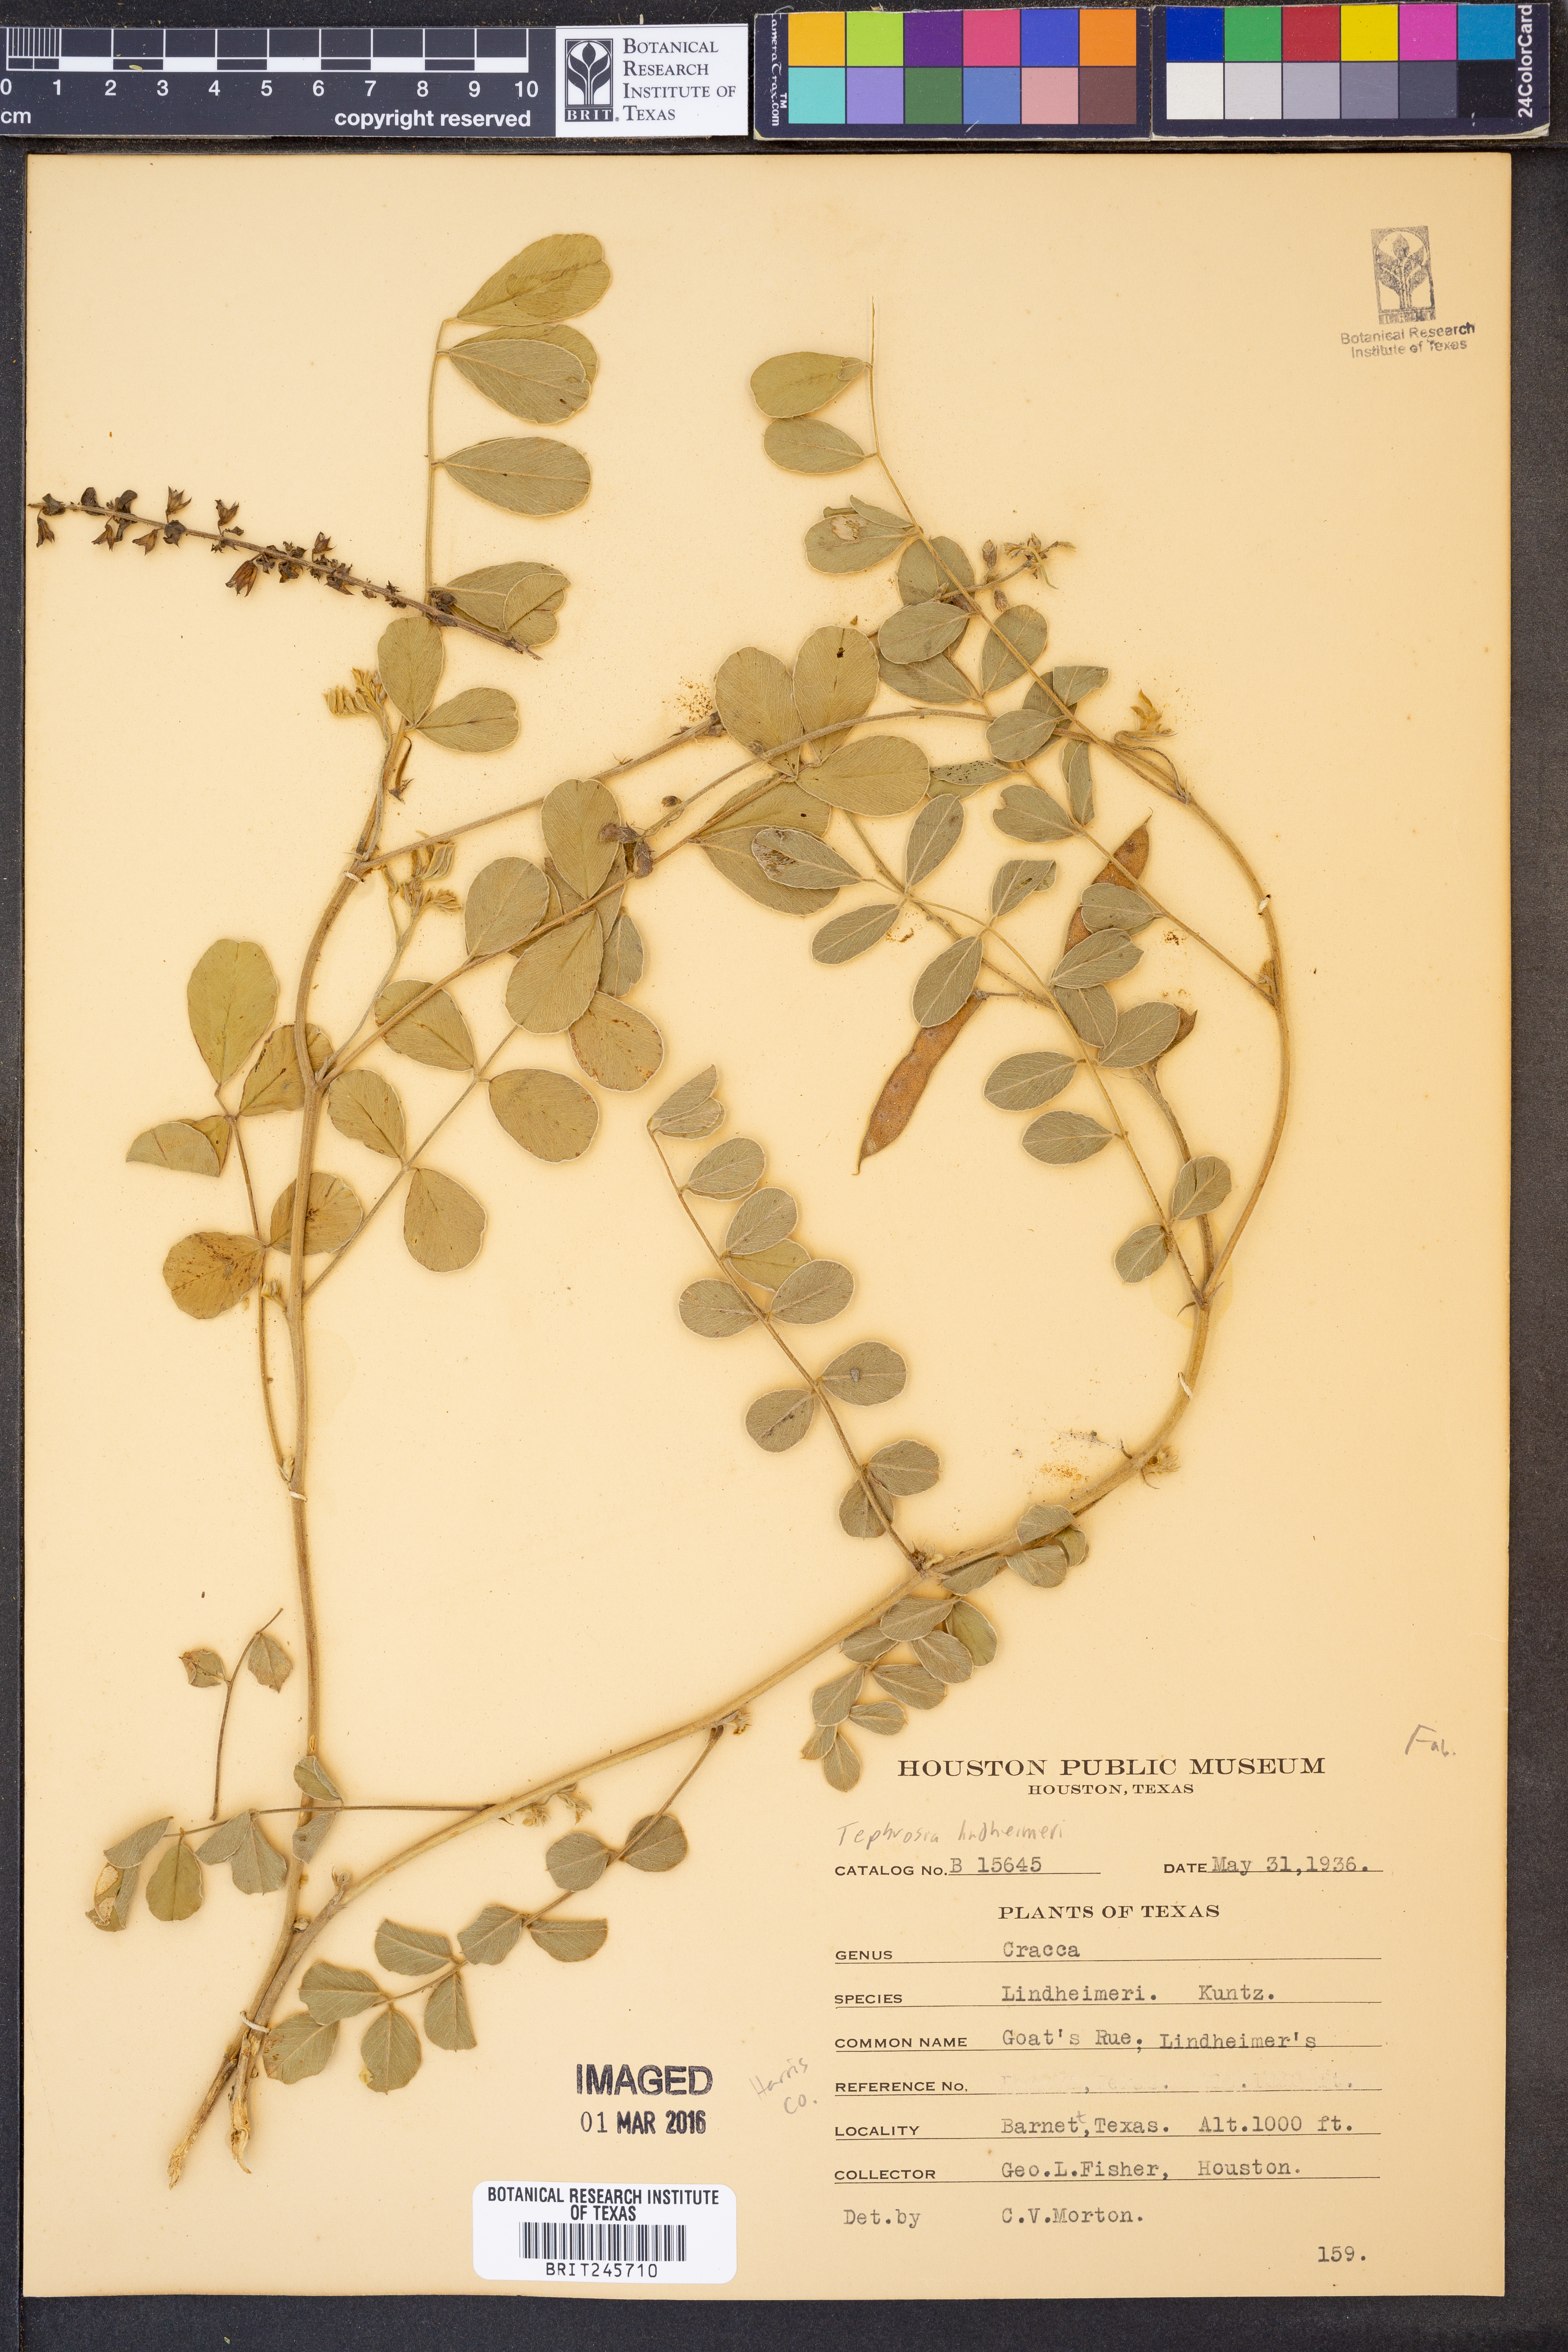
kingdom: Plantae
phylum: Tracheophyta
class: Magnoliopsida
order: Fabales
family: Fabaceae
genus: Tephrosia
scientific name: Tephrosia lindheimeri
